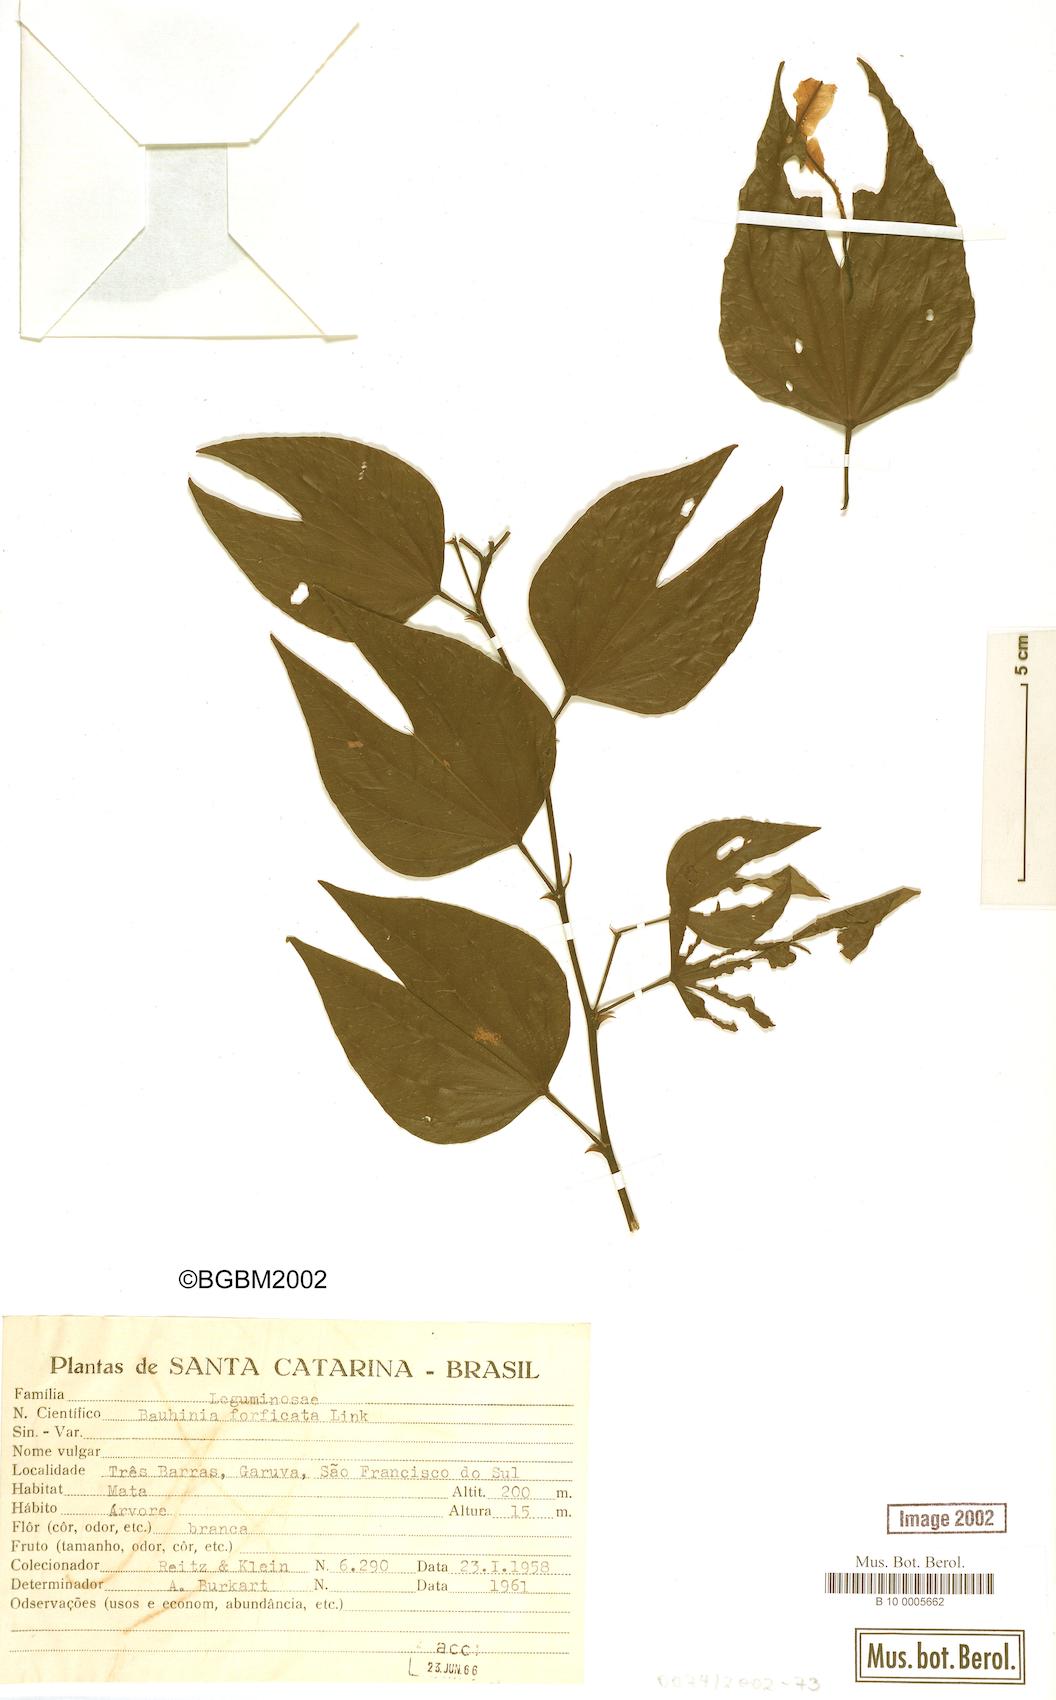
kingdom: Plantae
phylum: Tracheophyta
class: Magnoliopsida
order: Fabales
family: Fabaceae
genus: Bauhinia
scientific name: Bauhinia forficata
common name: Orchid tree
